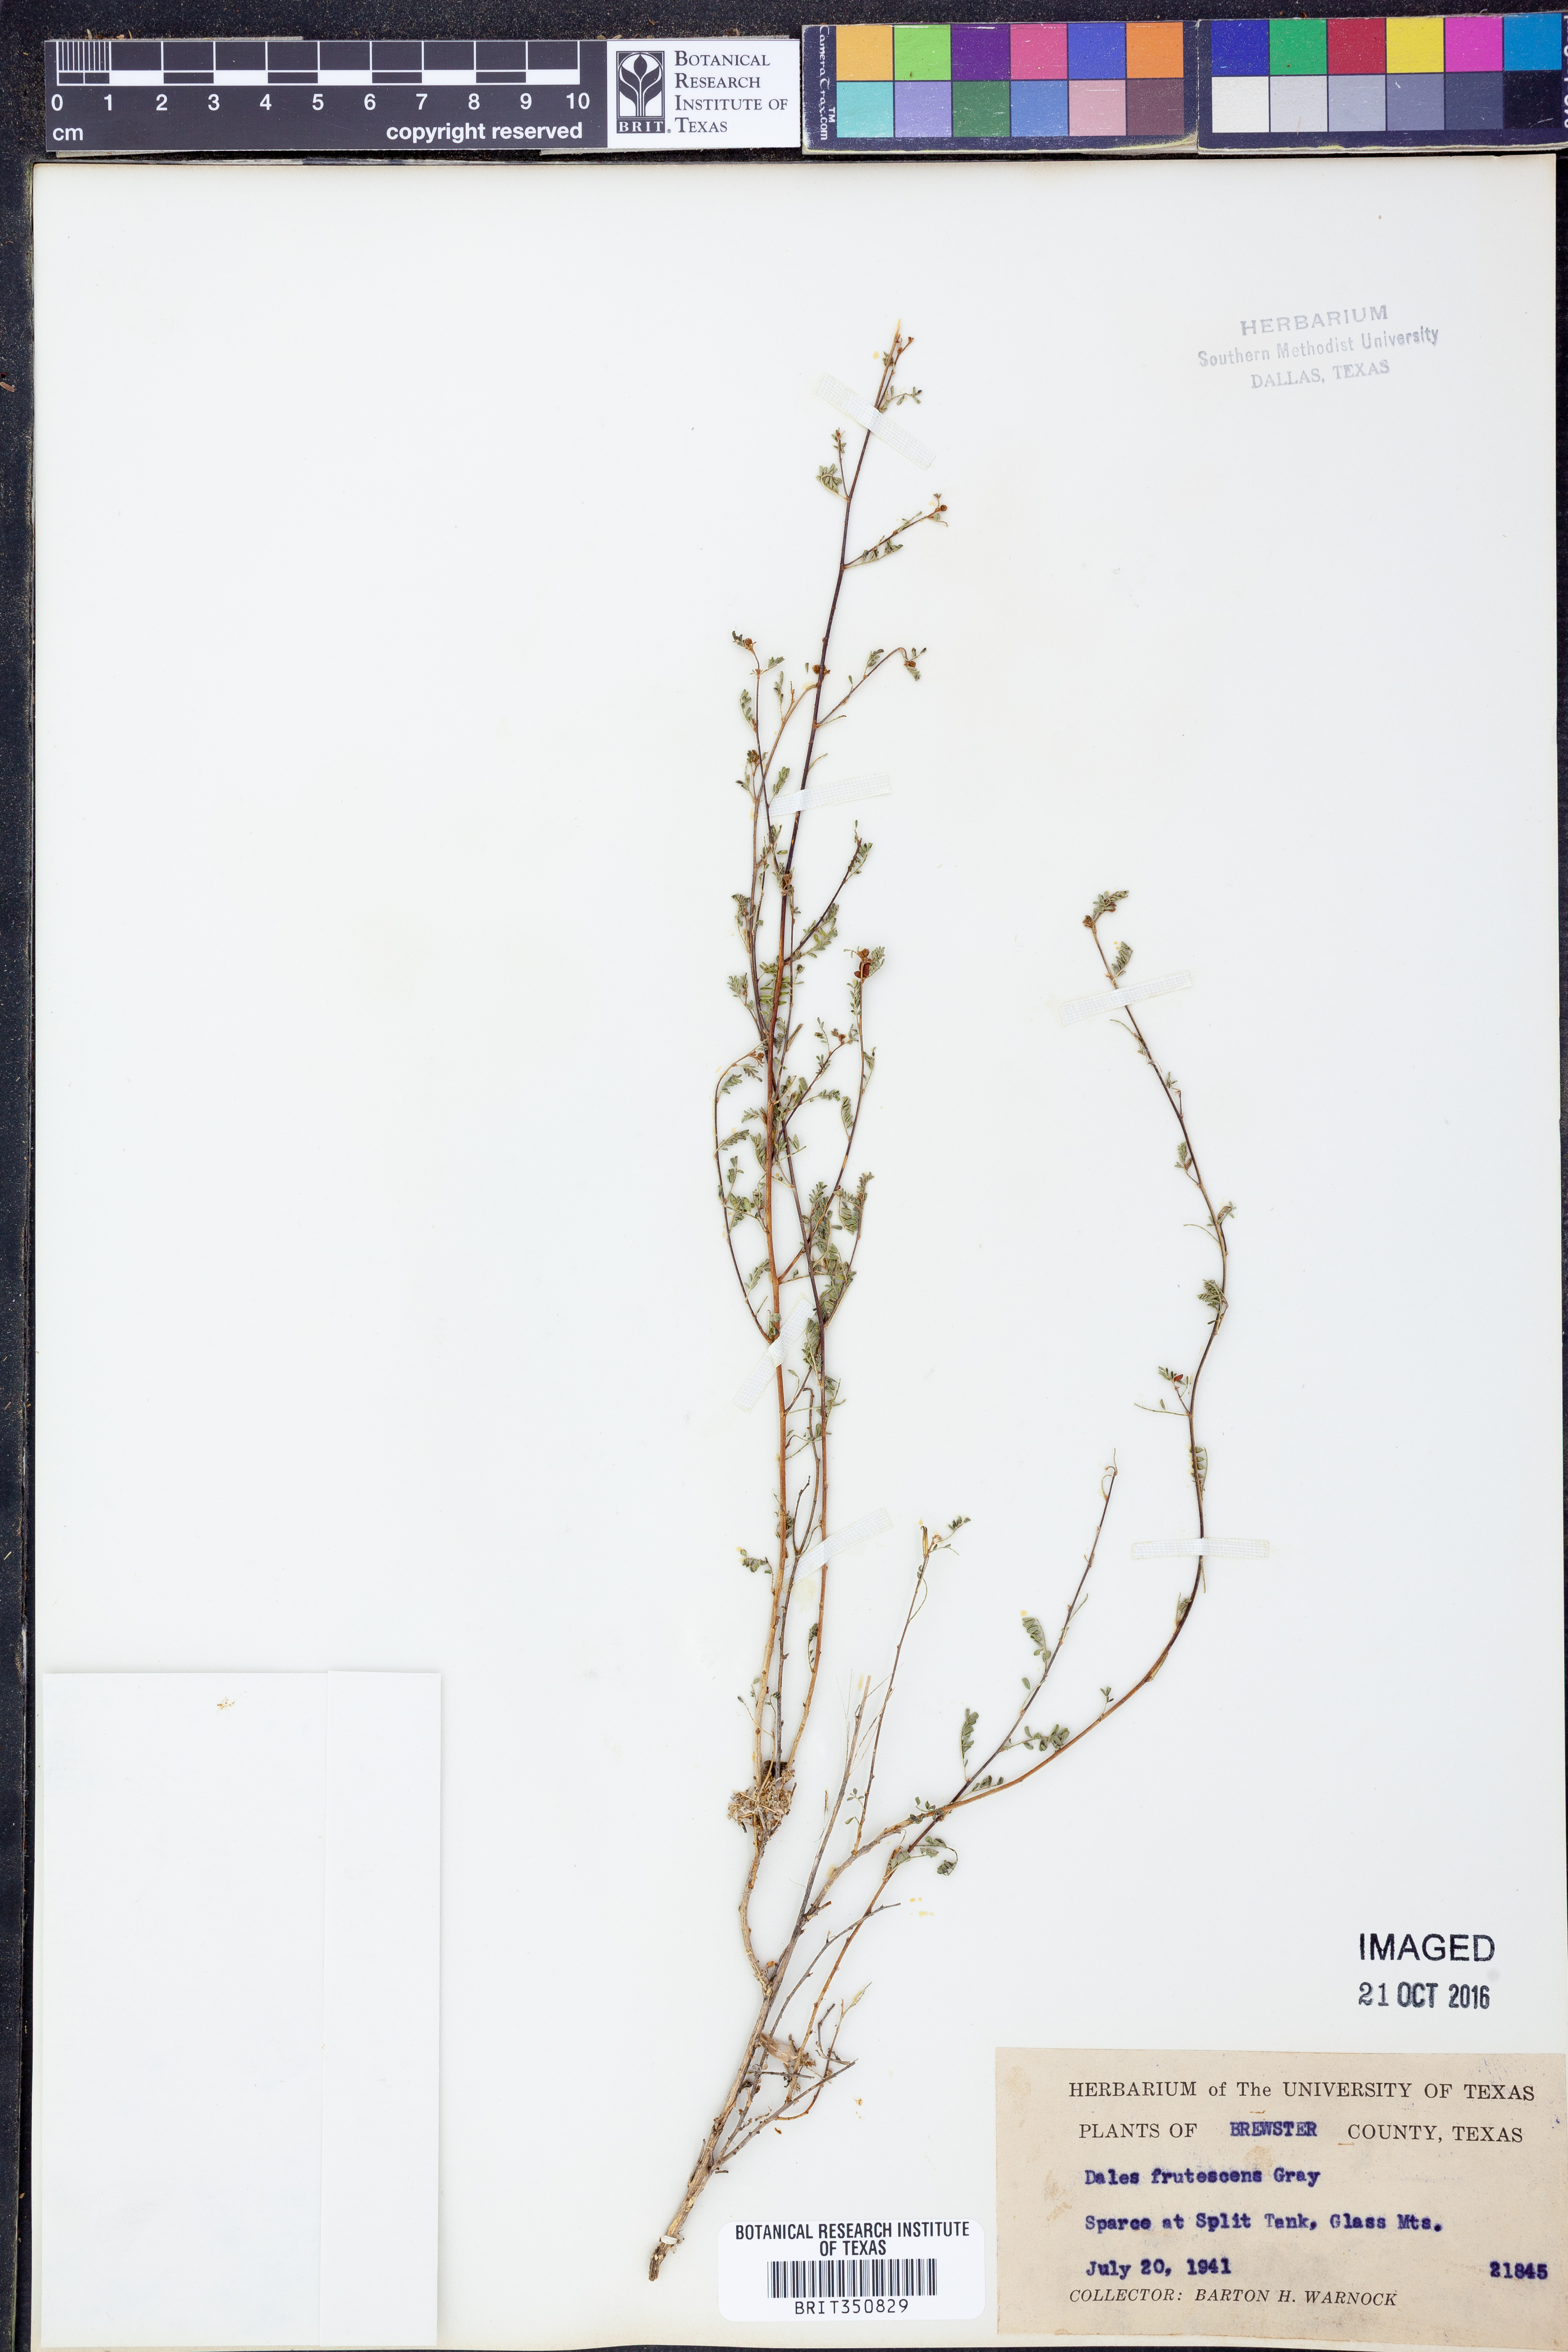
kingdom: Plantae
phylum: Tracheophyta
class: Magnoliopsida
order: Fabales
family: Fabaceae
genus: Dalea
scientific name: Dalea frutescens
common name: Black dalea
